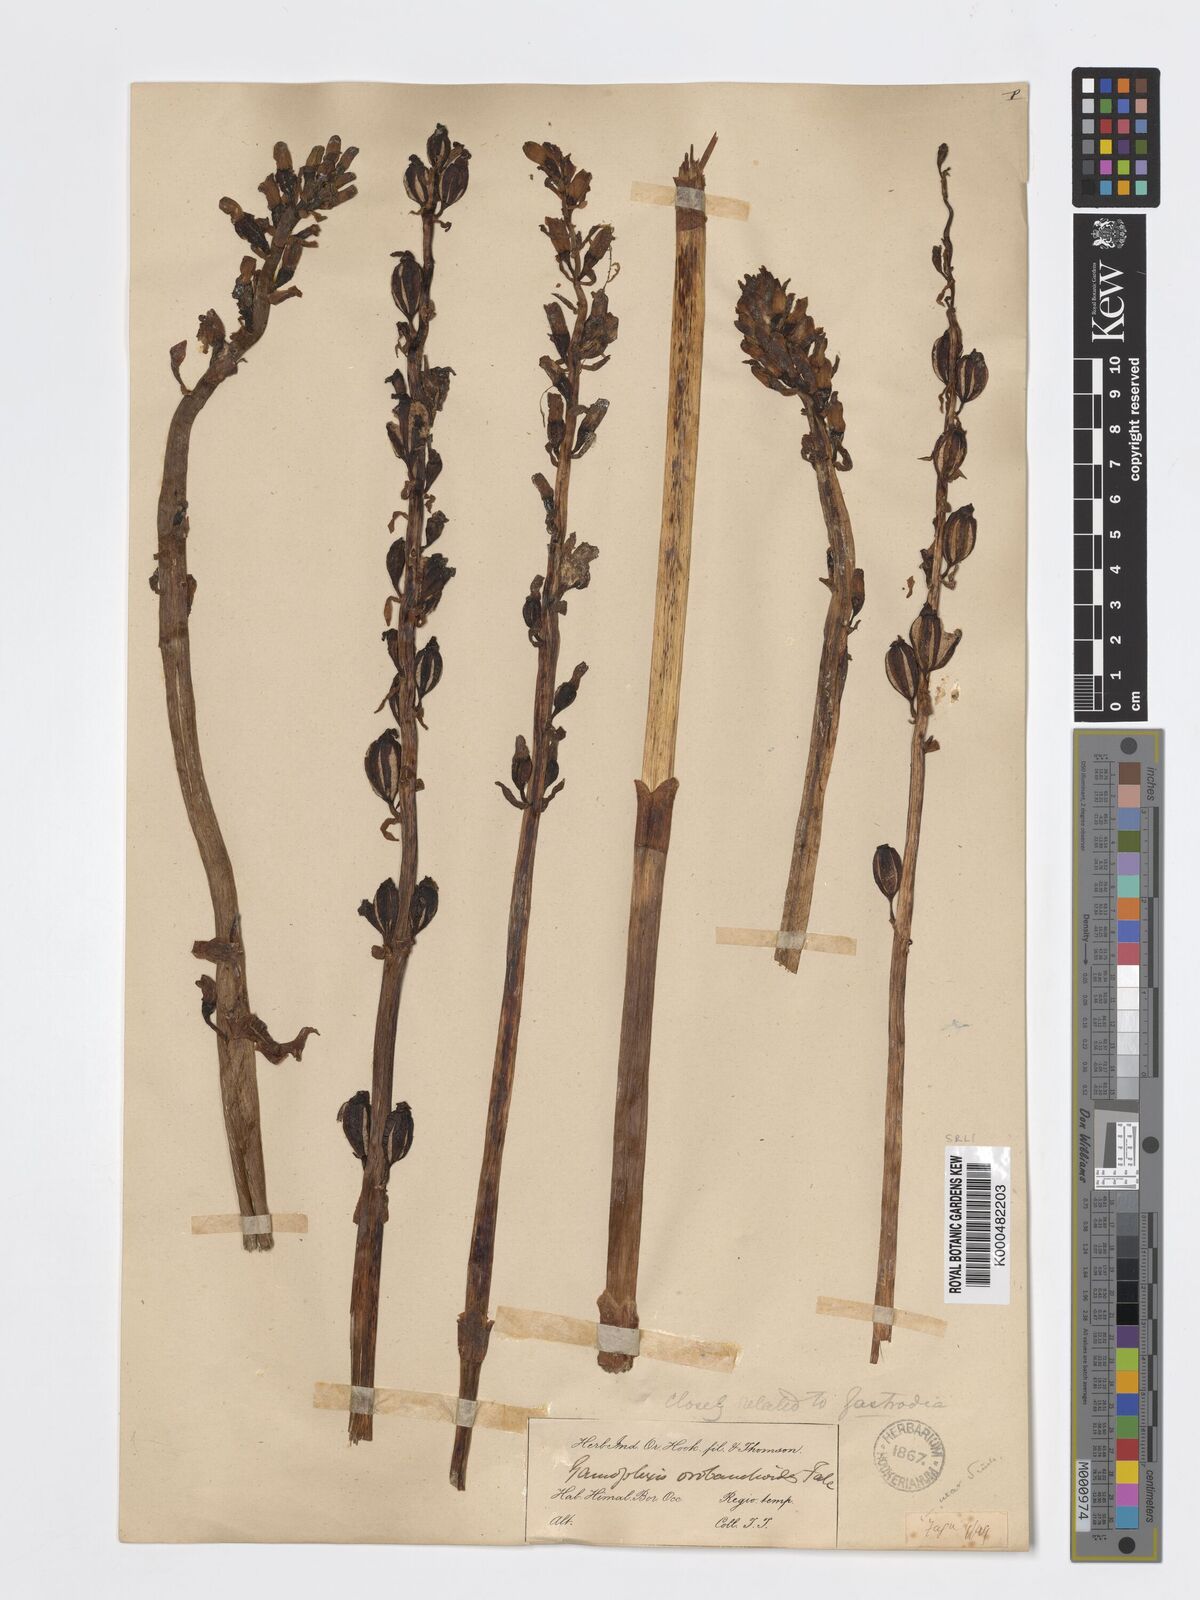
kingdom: Plantae
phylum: Tracheophyta
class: Liliopsida
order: Asparagales
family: Orchidaceae
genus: Gastrodia
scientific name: Gastrodia falconeri
